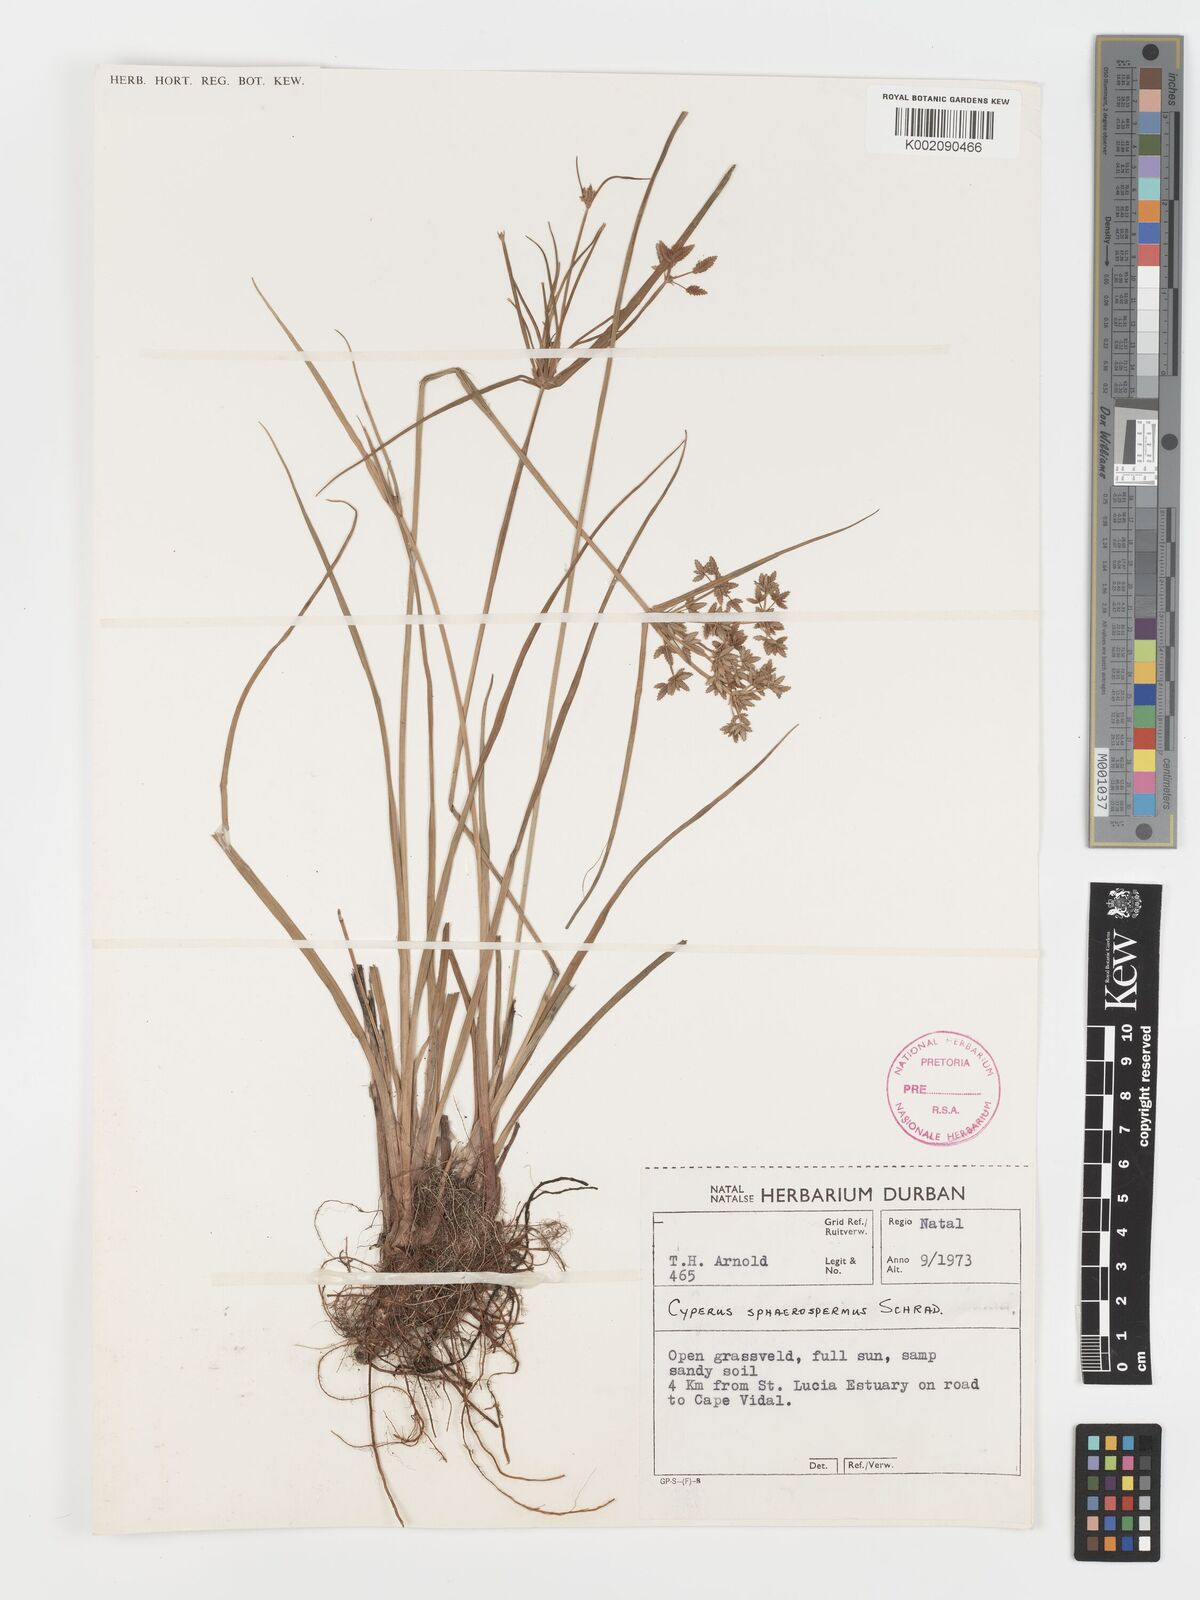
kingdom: Plantae
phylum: Tracheophyta
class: Liliopsida
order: Poales
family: Cyperaceae
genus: Cyperus
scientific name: Cyperus sphaerospermus
